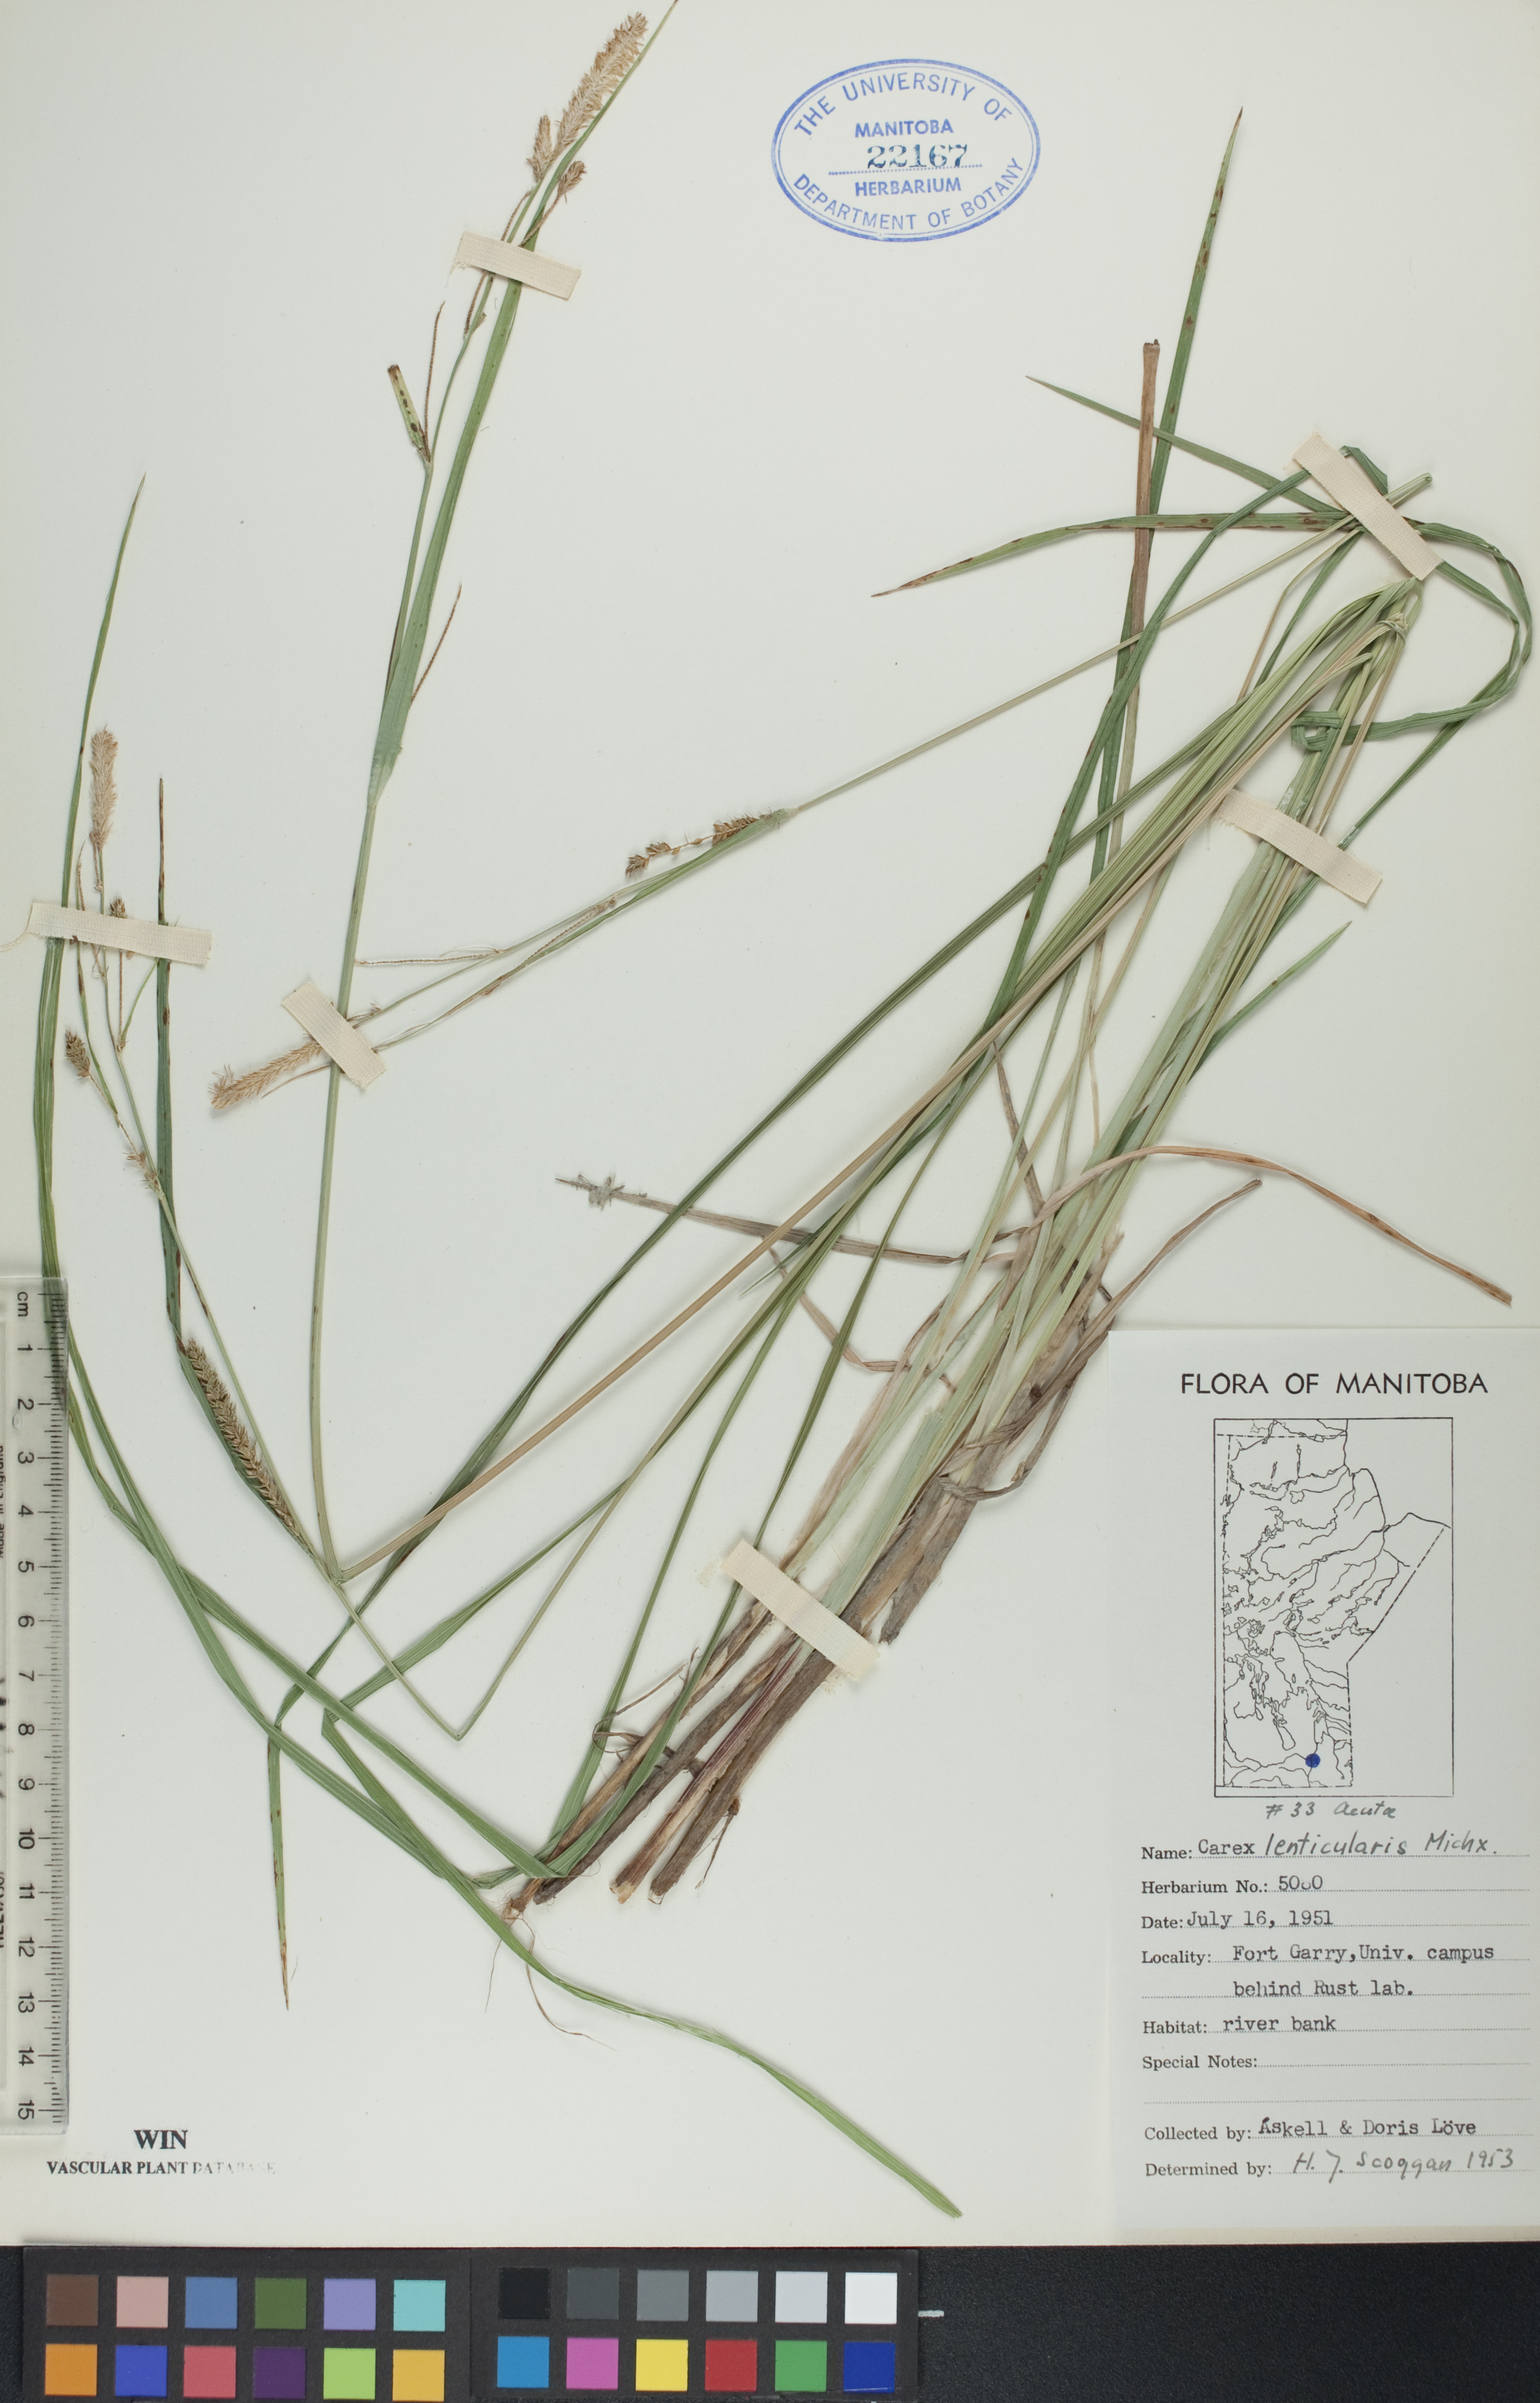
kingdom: Plantae
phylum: Tracheophyta
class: Liliopsida
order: Poales
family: Cyperaceae
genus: Carex
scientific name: Carex lenticularis
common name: Lakeshore sedge
